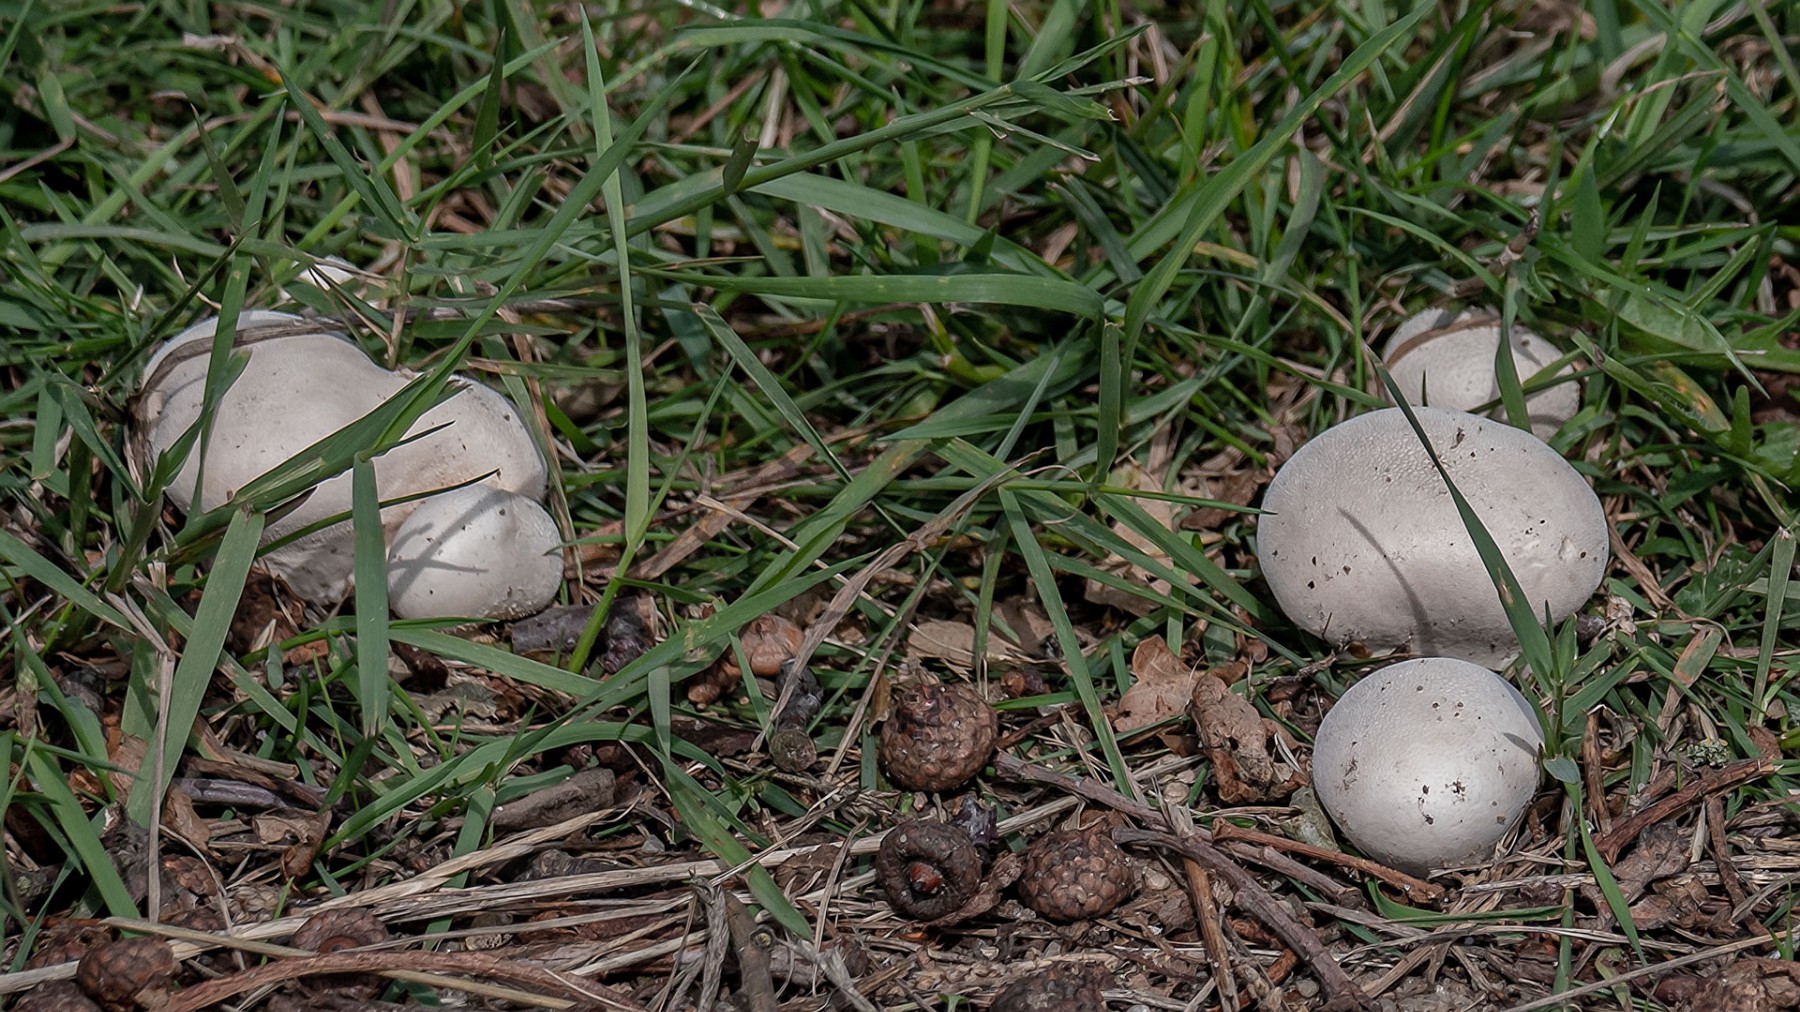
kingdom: Fungi
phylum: Basidiomycota
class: Agaricomycetes
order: Agaricales
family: Lycoperdaceae
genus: Lycoperdon
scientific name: Lycoperdon pratense
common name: flad støvbold
